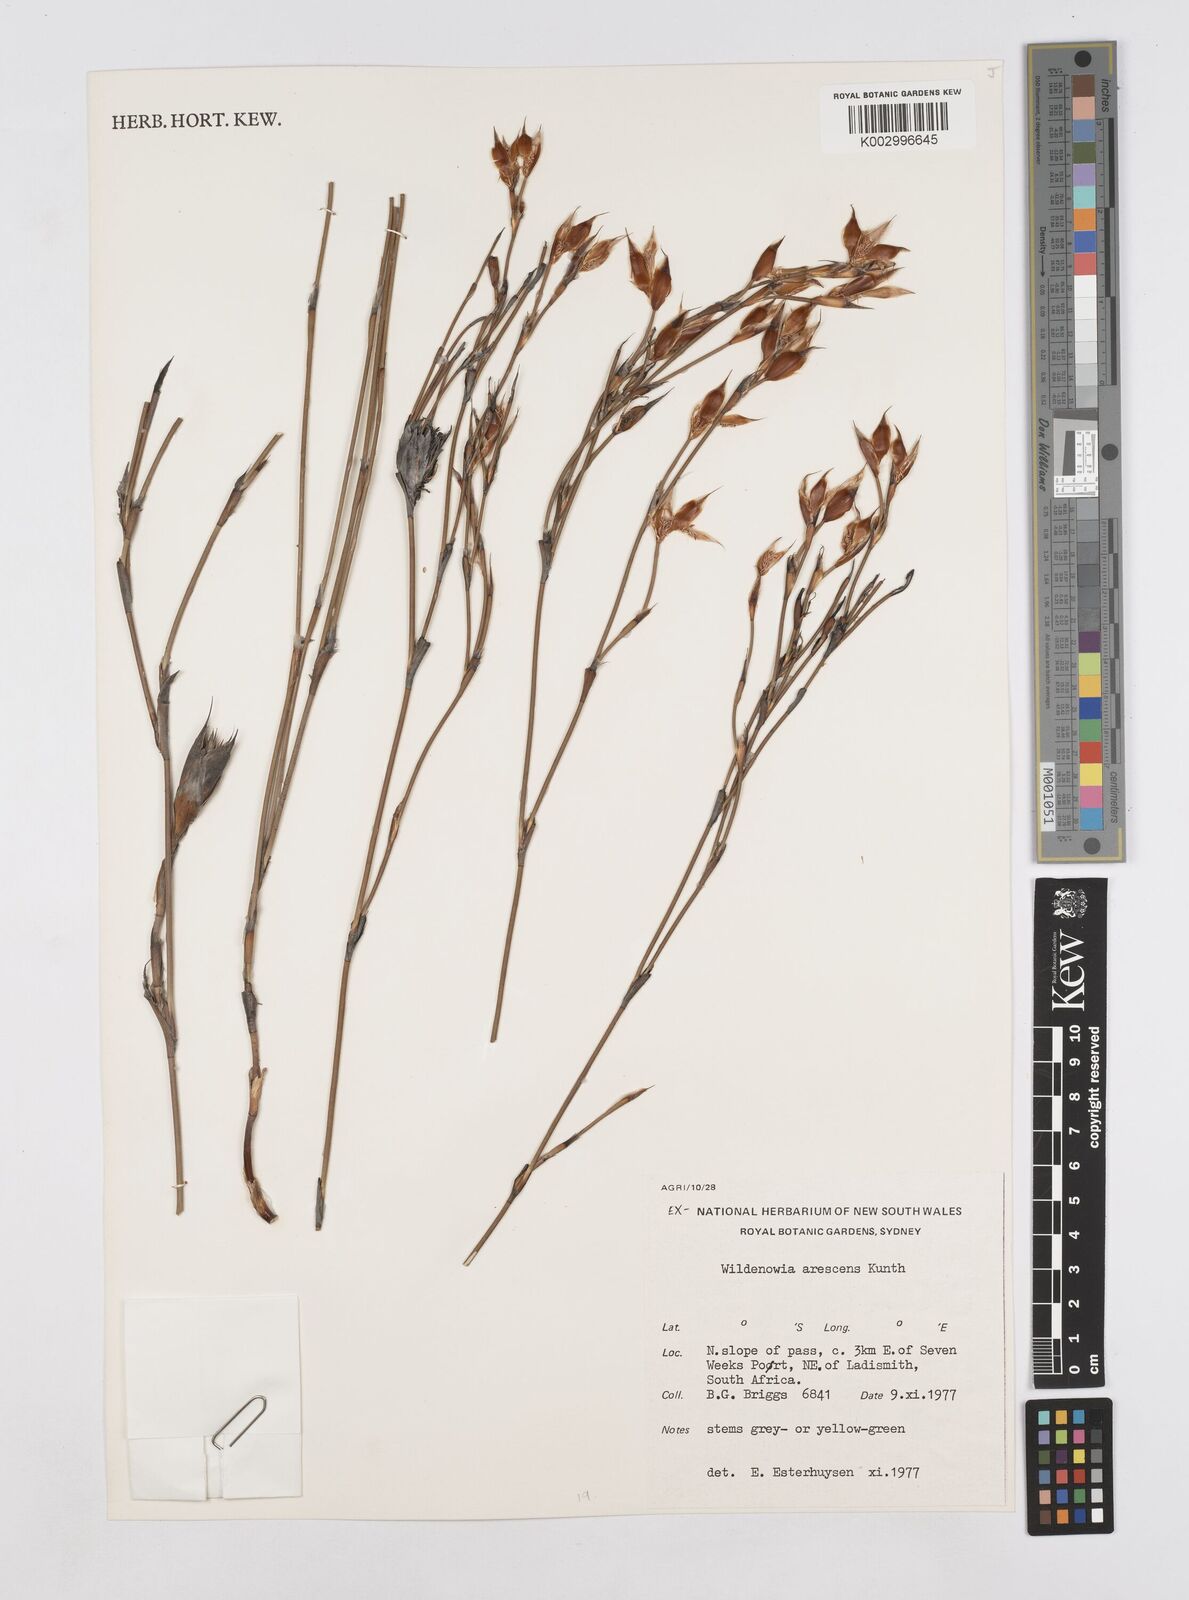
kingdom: Plantae
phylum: Tracheophyta
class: Liliopsida
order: Poales
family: Restionaceae
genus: Willdenowia
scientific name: Willdenowia arescens
